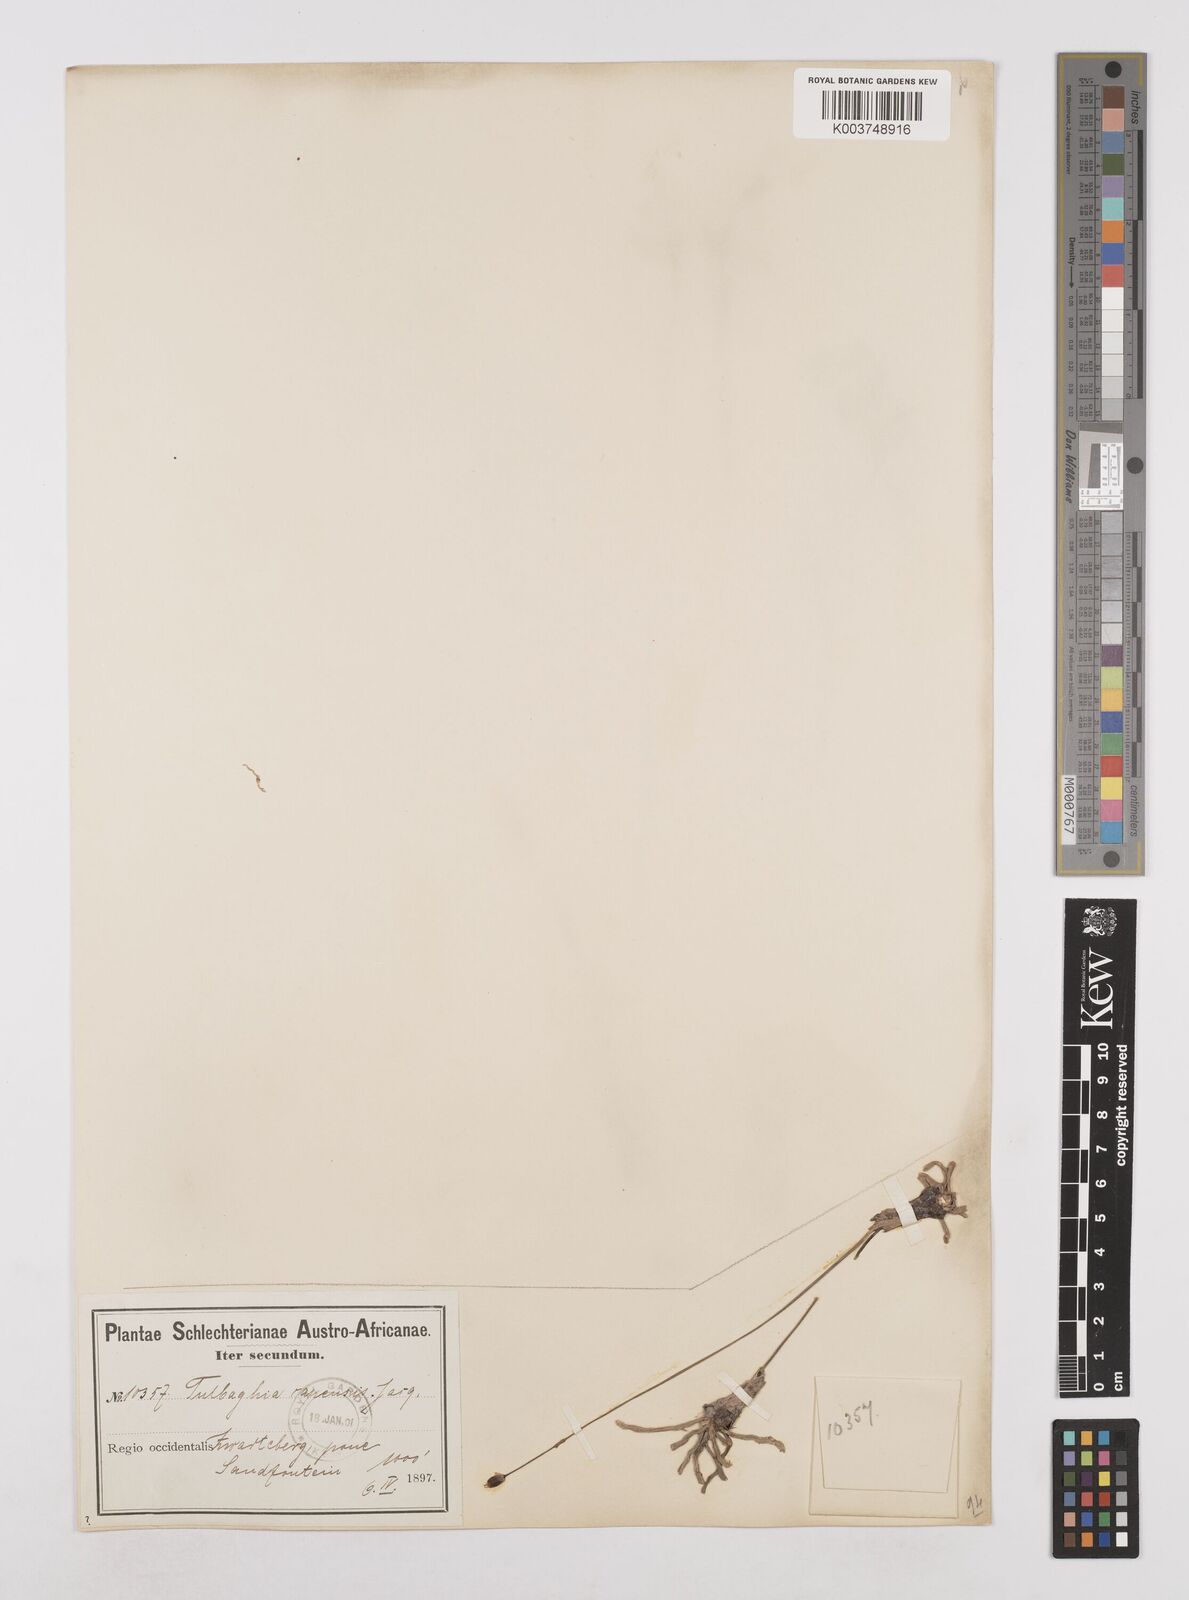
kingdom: Plantae
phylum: Tracheophyta
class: Liliopsida
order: Asparagales
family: Amaryllidaceae
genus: Tulbaghia
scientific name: Tulbaghia capensis
